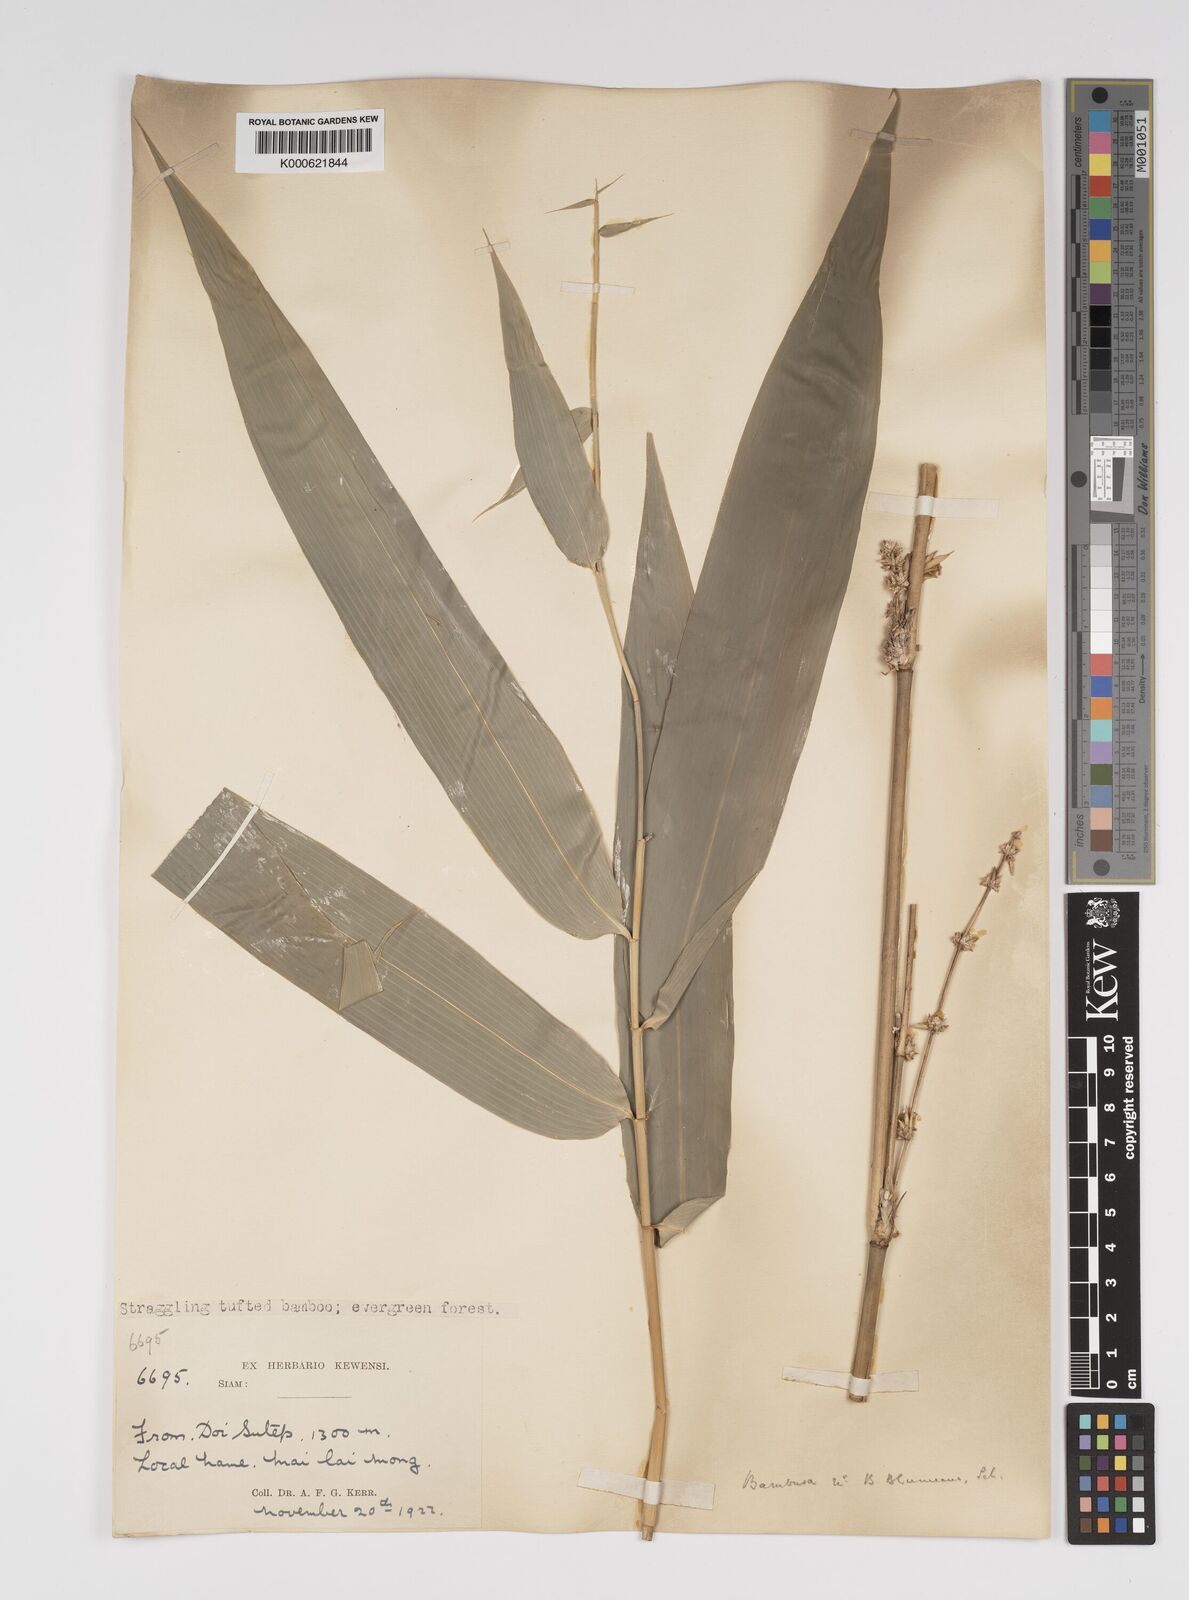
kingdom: Plantae
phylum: Tracheophyta
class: Liliopsida
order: Poales
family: Poaceae
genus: Bambusa
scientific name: Bambusa sesquiflora
